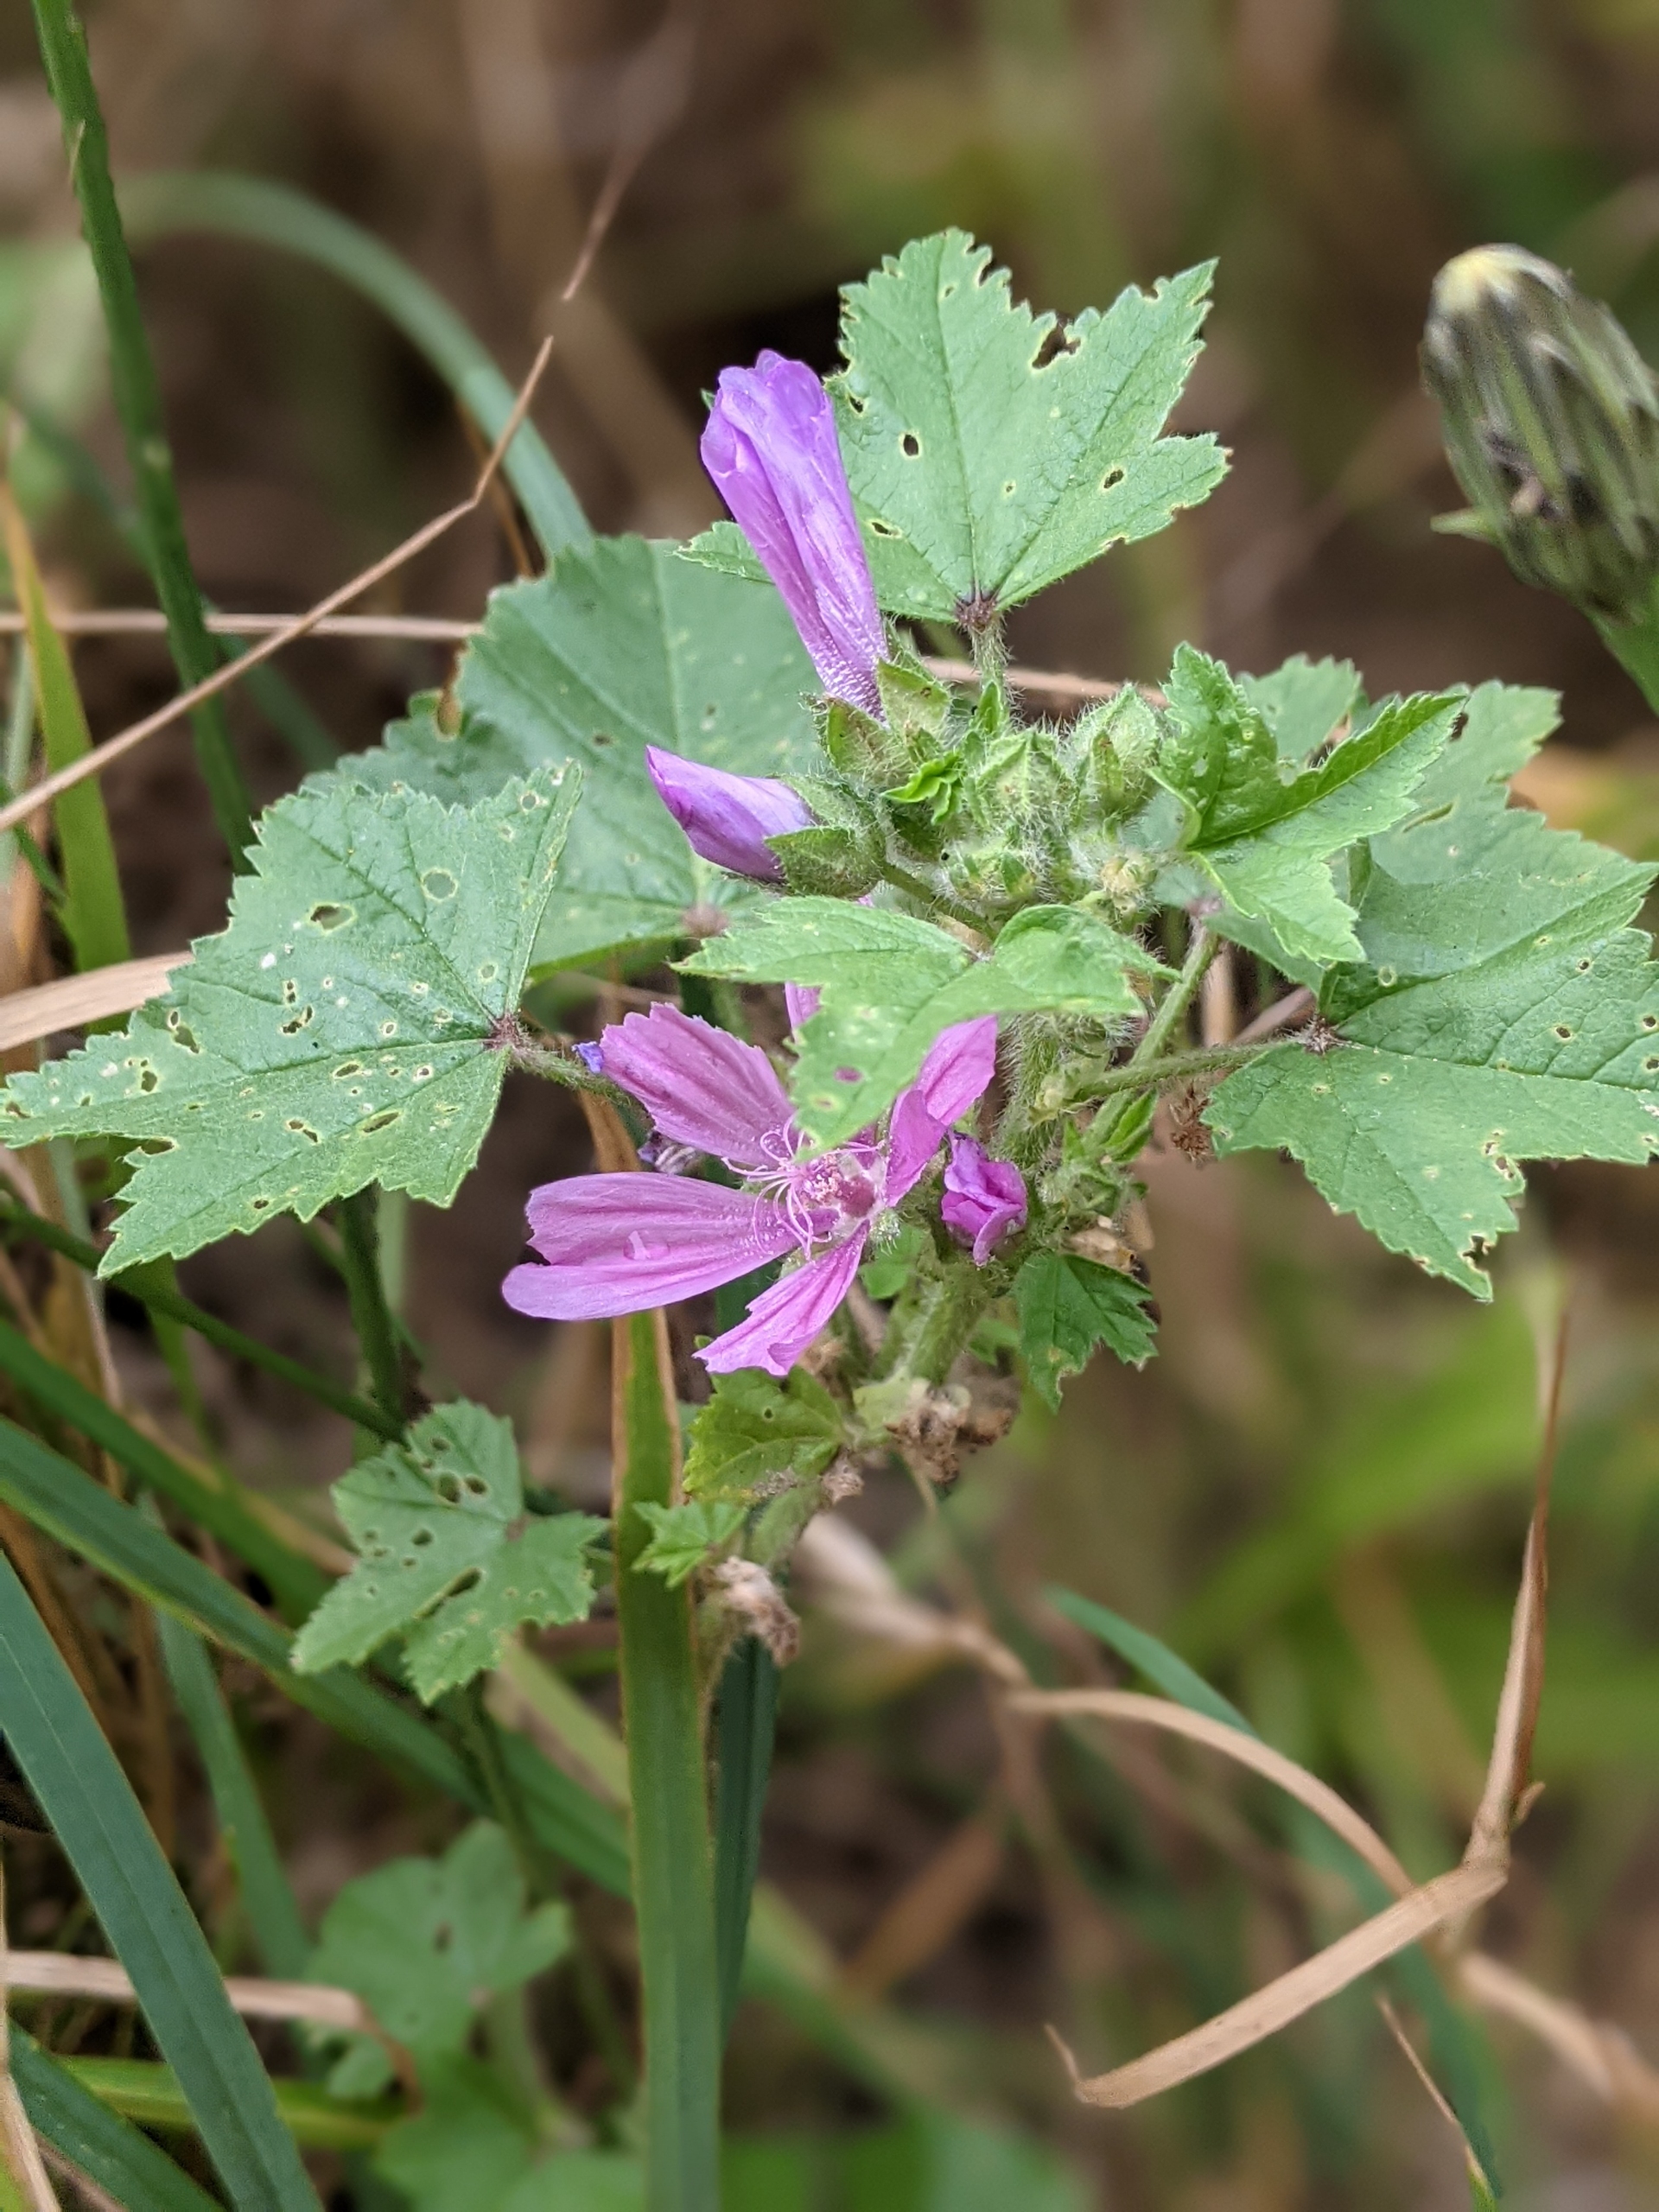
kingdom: Plantae
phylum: Tracheophyta
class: Magnoliopsida
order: Malvales
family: Malvaceae
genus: Malva
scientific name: Malva sylvestris
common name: Almindelig katost
